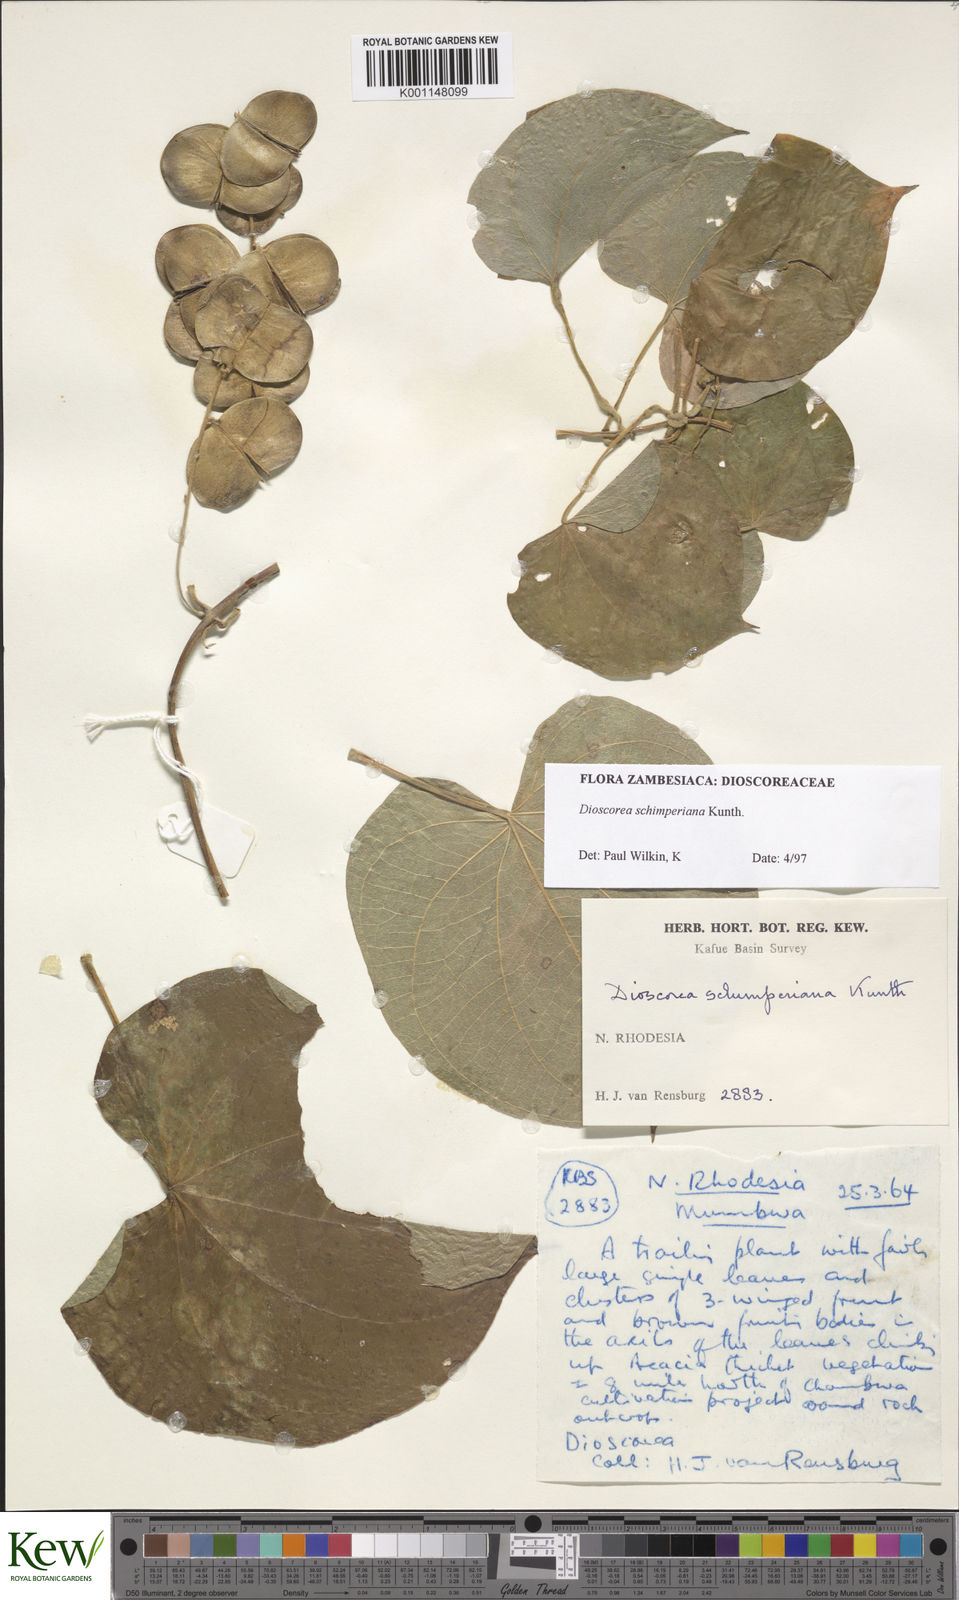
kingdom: Plantae
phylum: Tracheophyta
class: Liliopsida
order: Dioscoreales
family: Dioscoreaceae
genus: Dioscorea
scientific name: Dioscorea schimperiana
